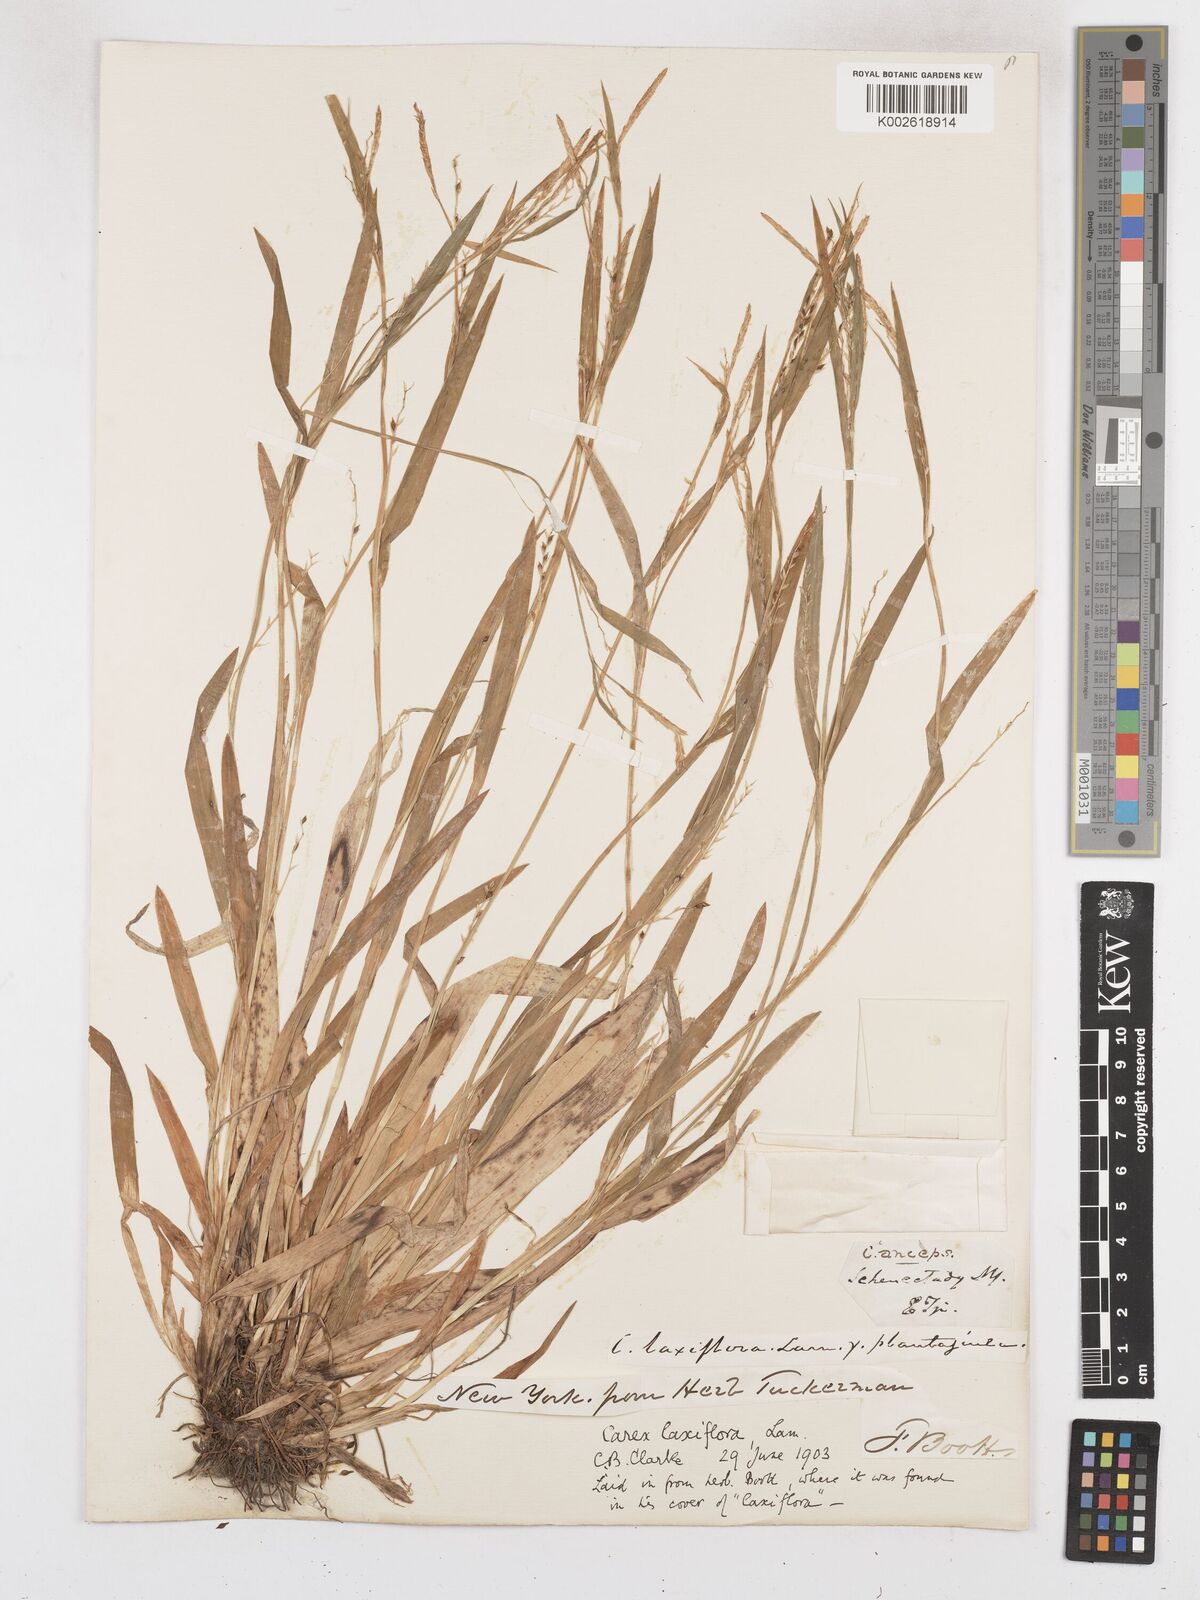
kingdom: Plantae
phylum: Tracheophyta
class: Liliopsida
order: Poales
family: Cyperaceae
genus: Carex
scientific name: Carex laxiflora
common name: Beech wood sedge
